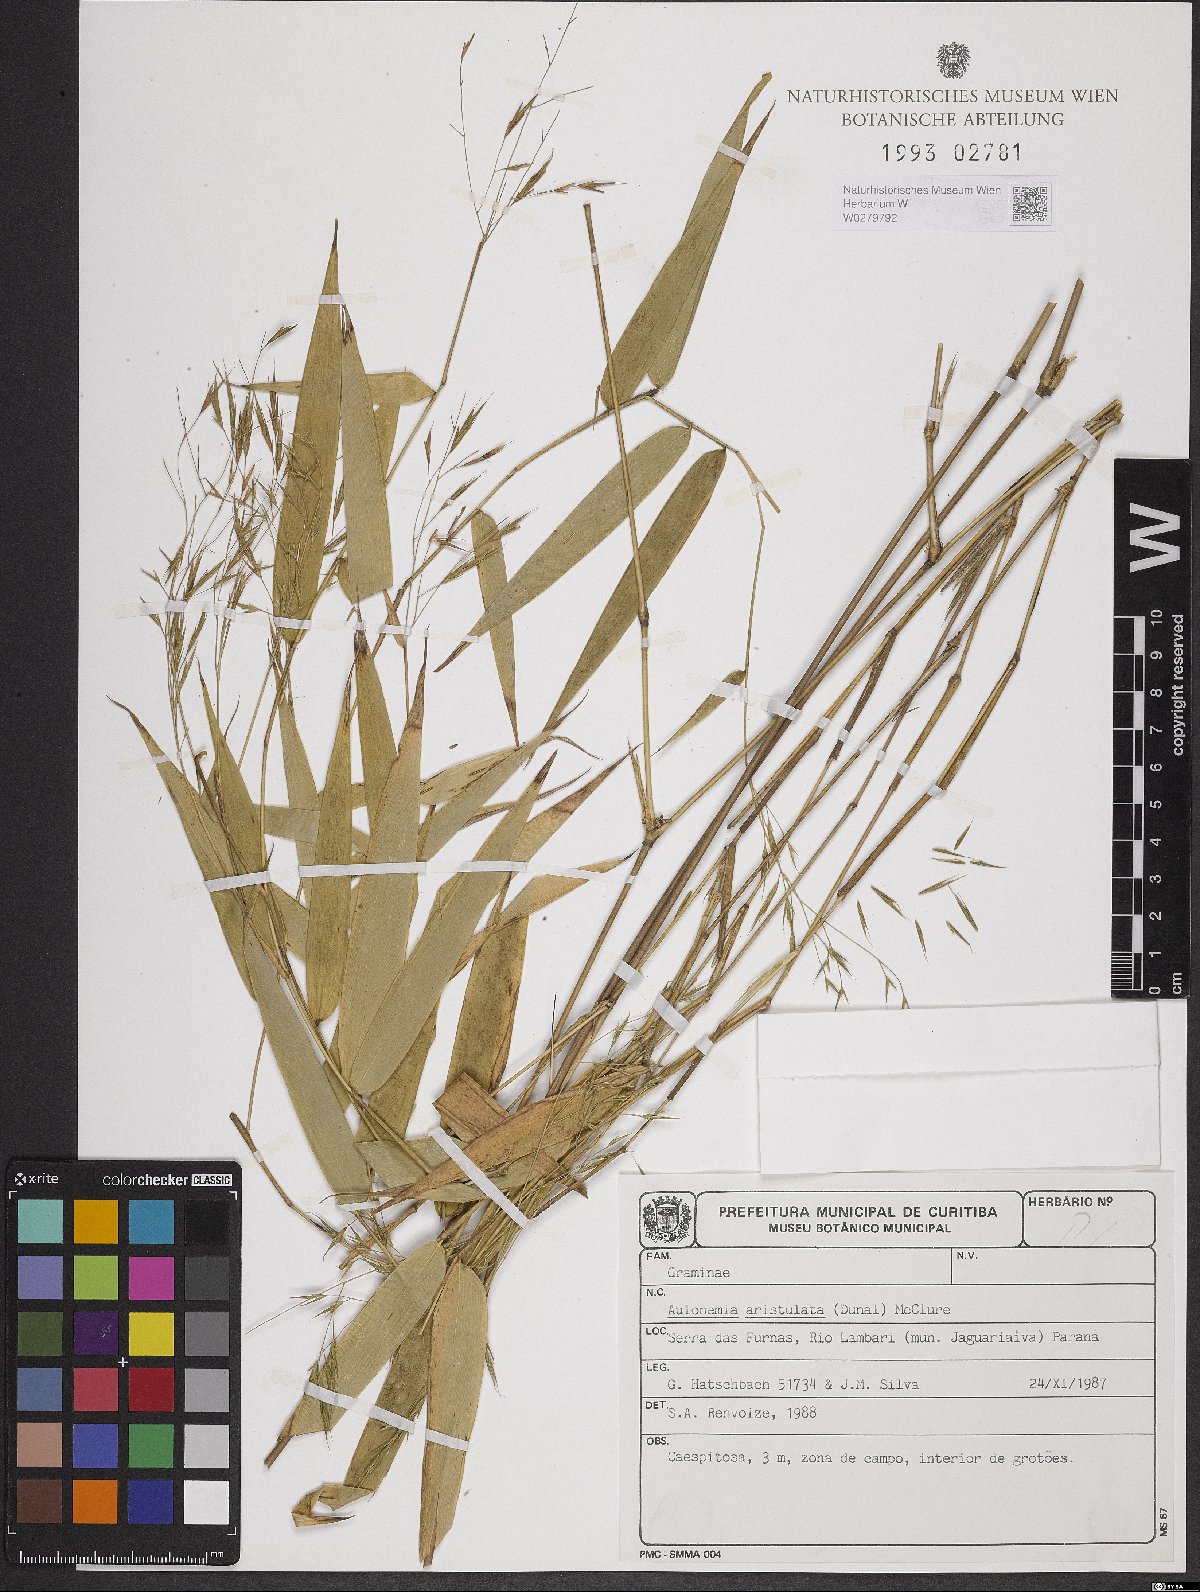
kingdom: Plantae
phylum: Tracheophyta
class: Liliopsida
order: Poales
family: Poaceae
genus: Aulonemia
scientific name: Aulonemia aristulata
